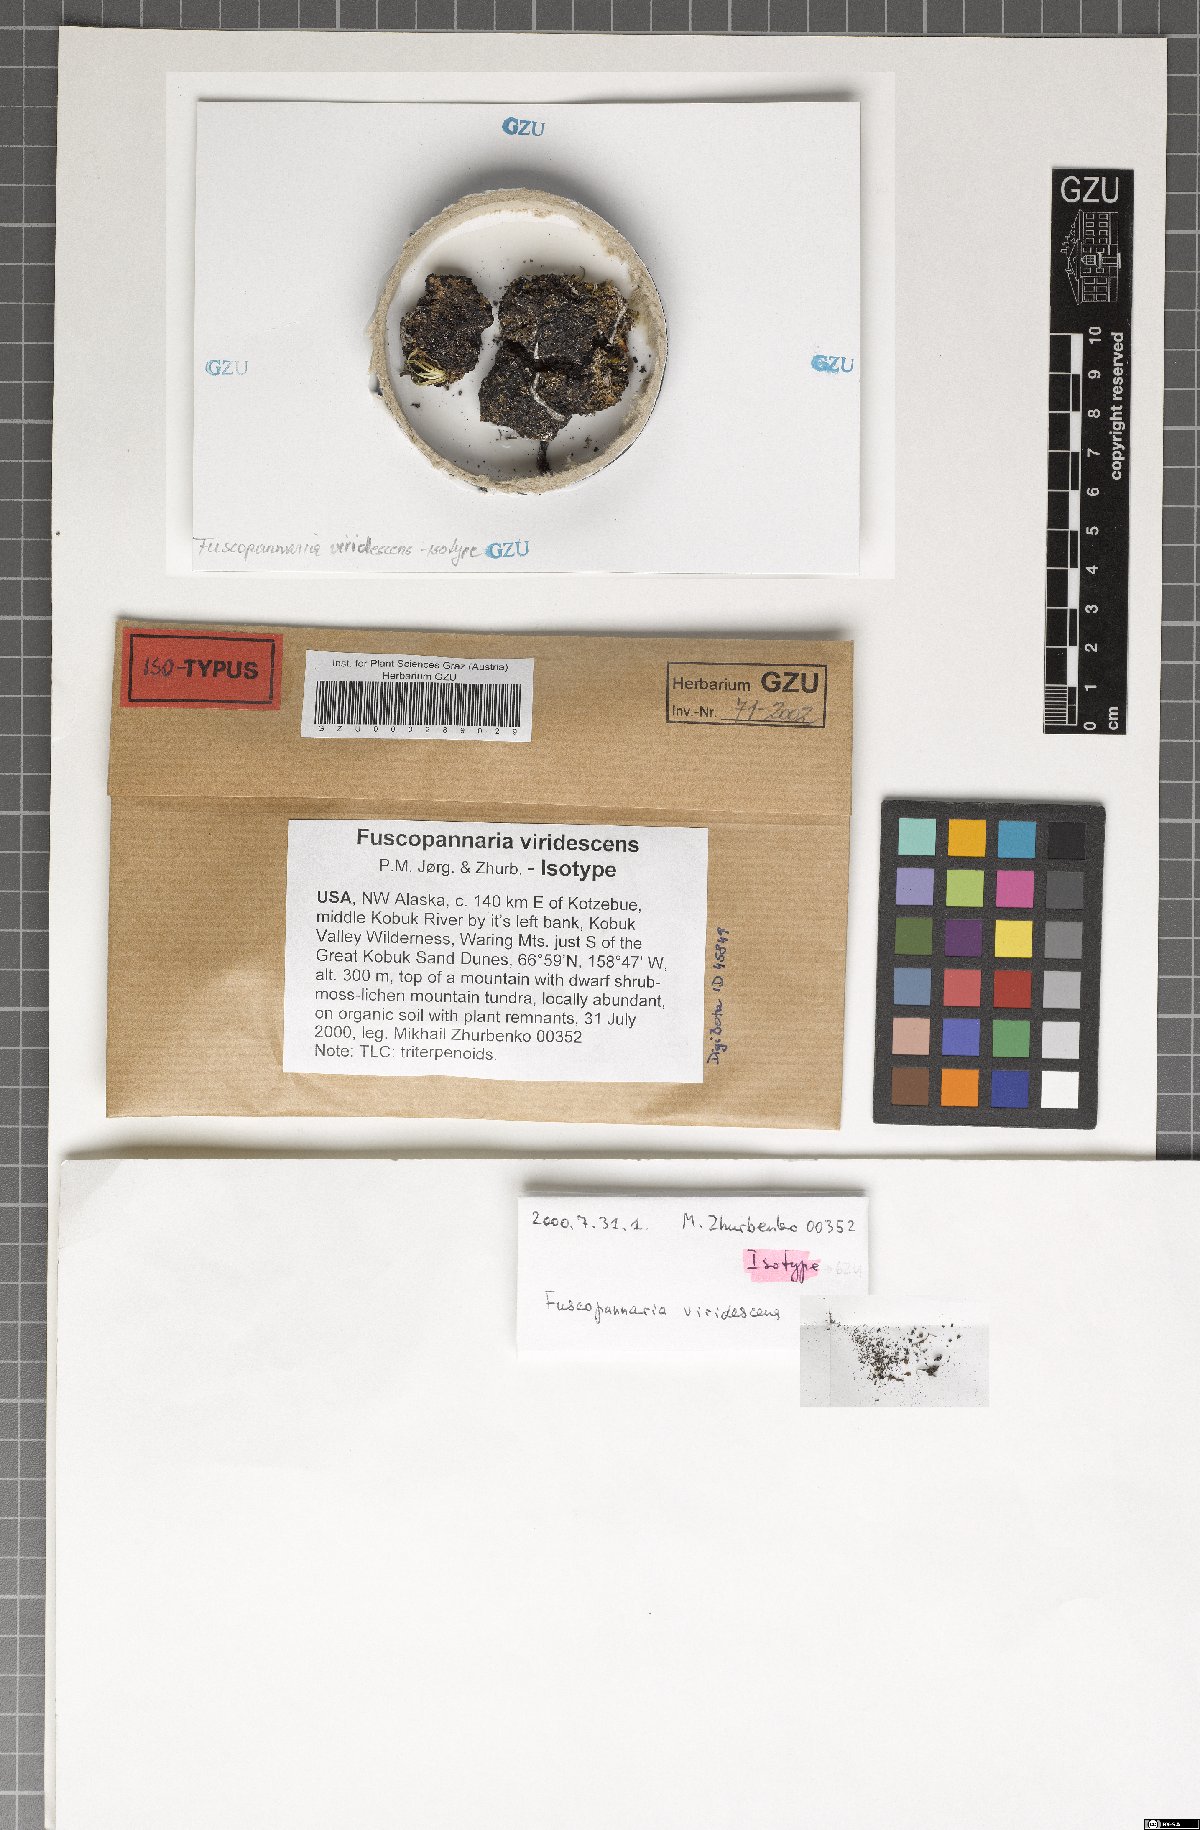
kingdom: Fungi
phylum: Ascomycota
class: Lecanoromycetes
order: Peltigerales
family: Pannariaceae
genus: Fuscopannaria
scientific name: Fuscopannaria viridescens
